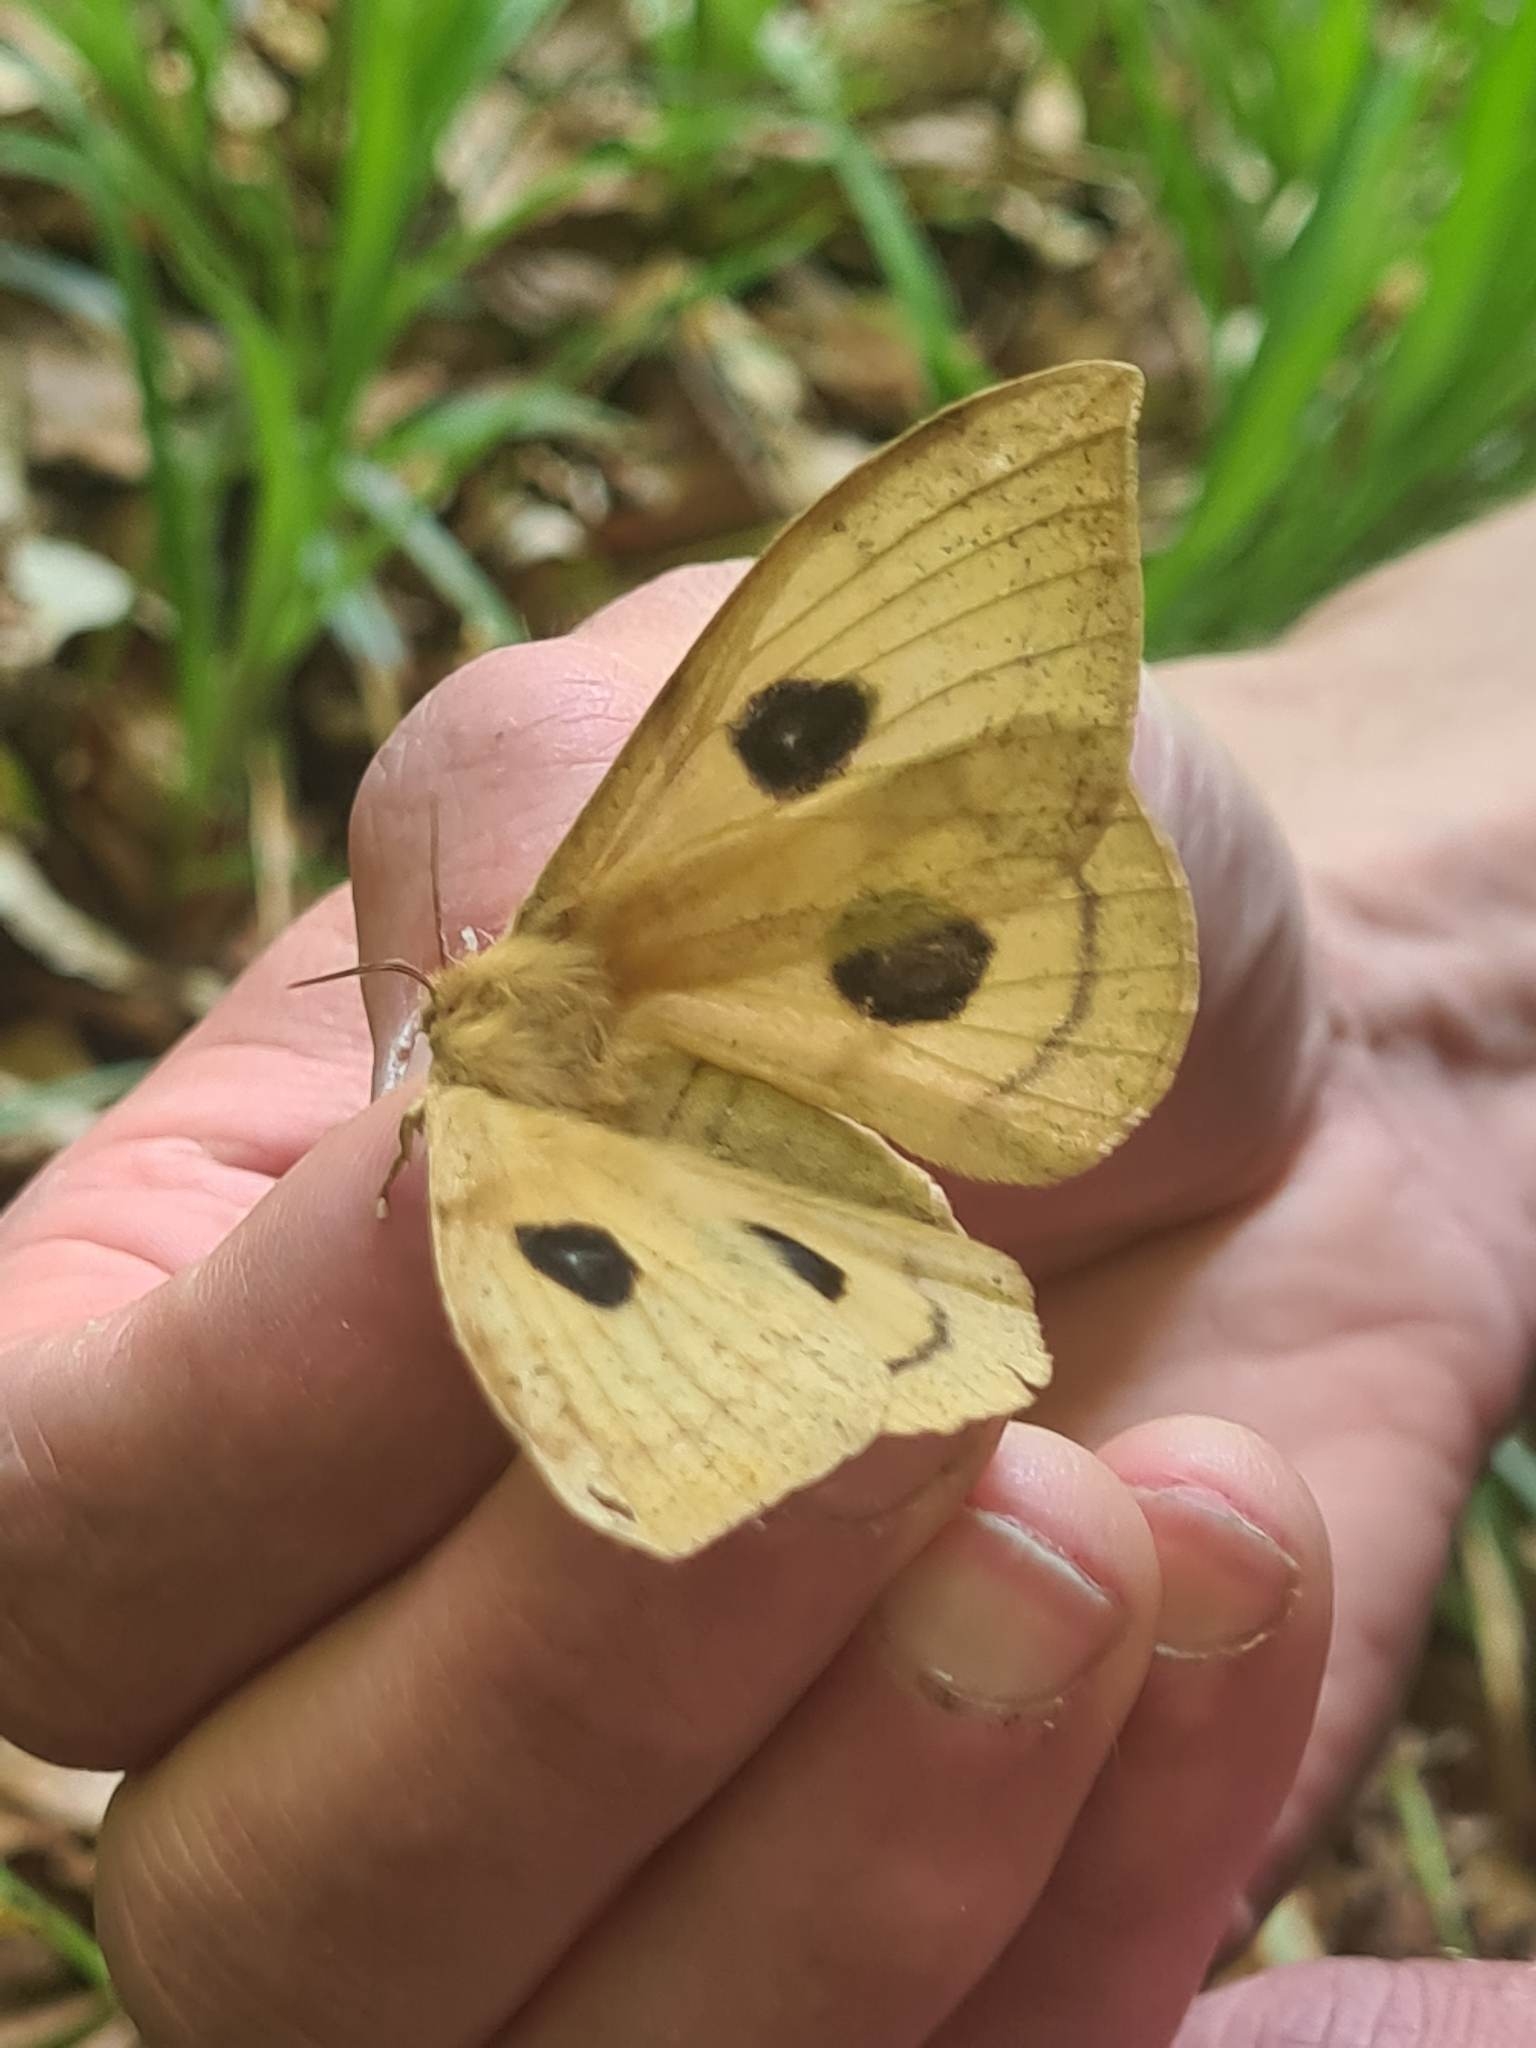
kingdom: Animalia
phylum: Arthropoda
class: Insecta
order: Lepidoptera
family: Saturniidae
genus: Aglia
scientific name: Aglia tau
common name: Sømplet
